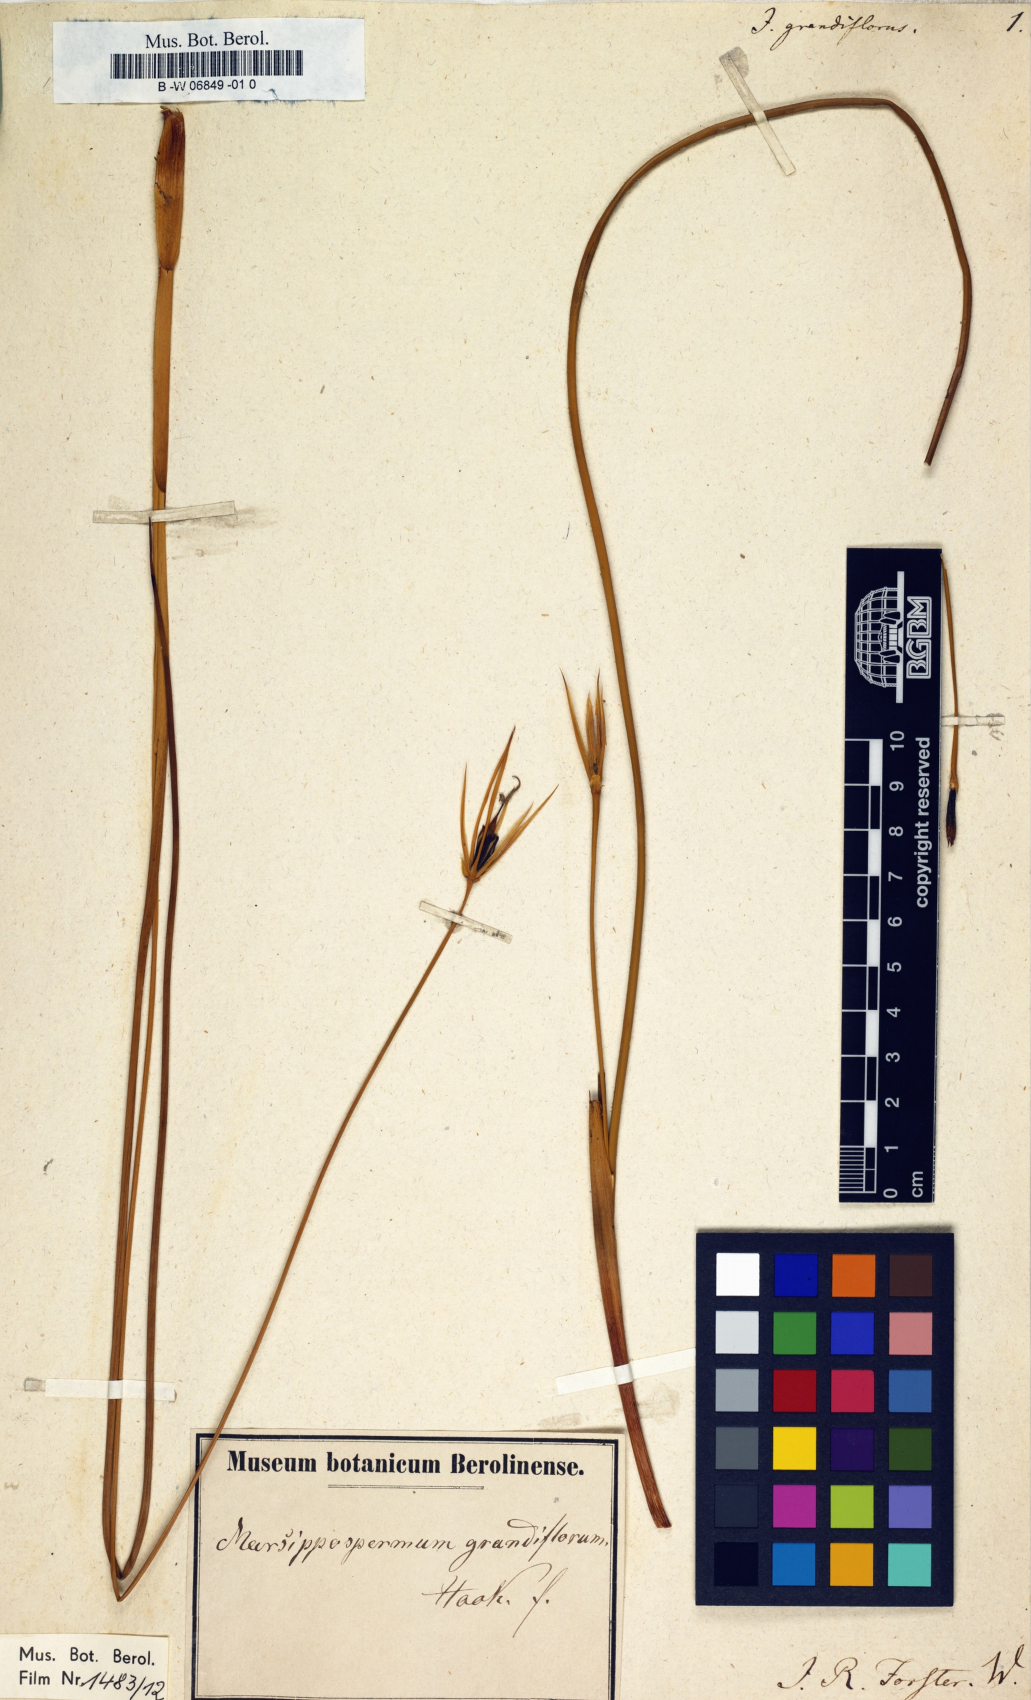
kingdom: Plantae
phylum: Tracheophyta
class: Liliopsida
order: Poales
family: Juncaceae
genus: Marsippospermum
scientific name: Marsippospermum grandiflorum
